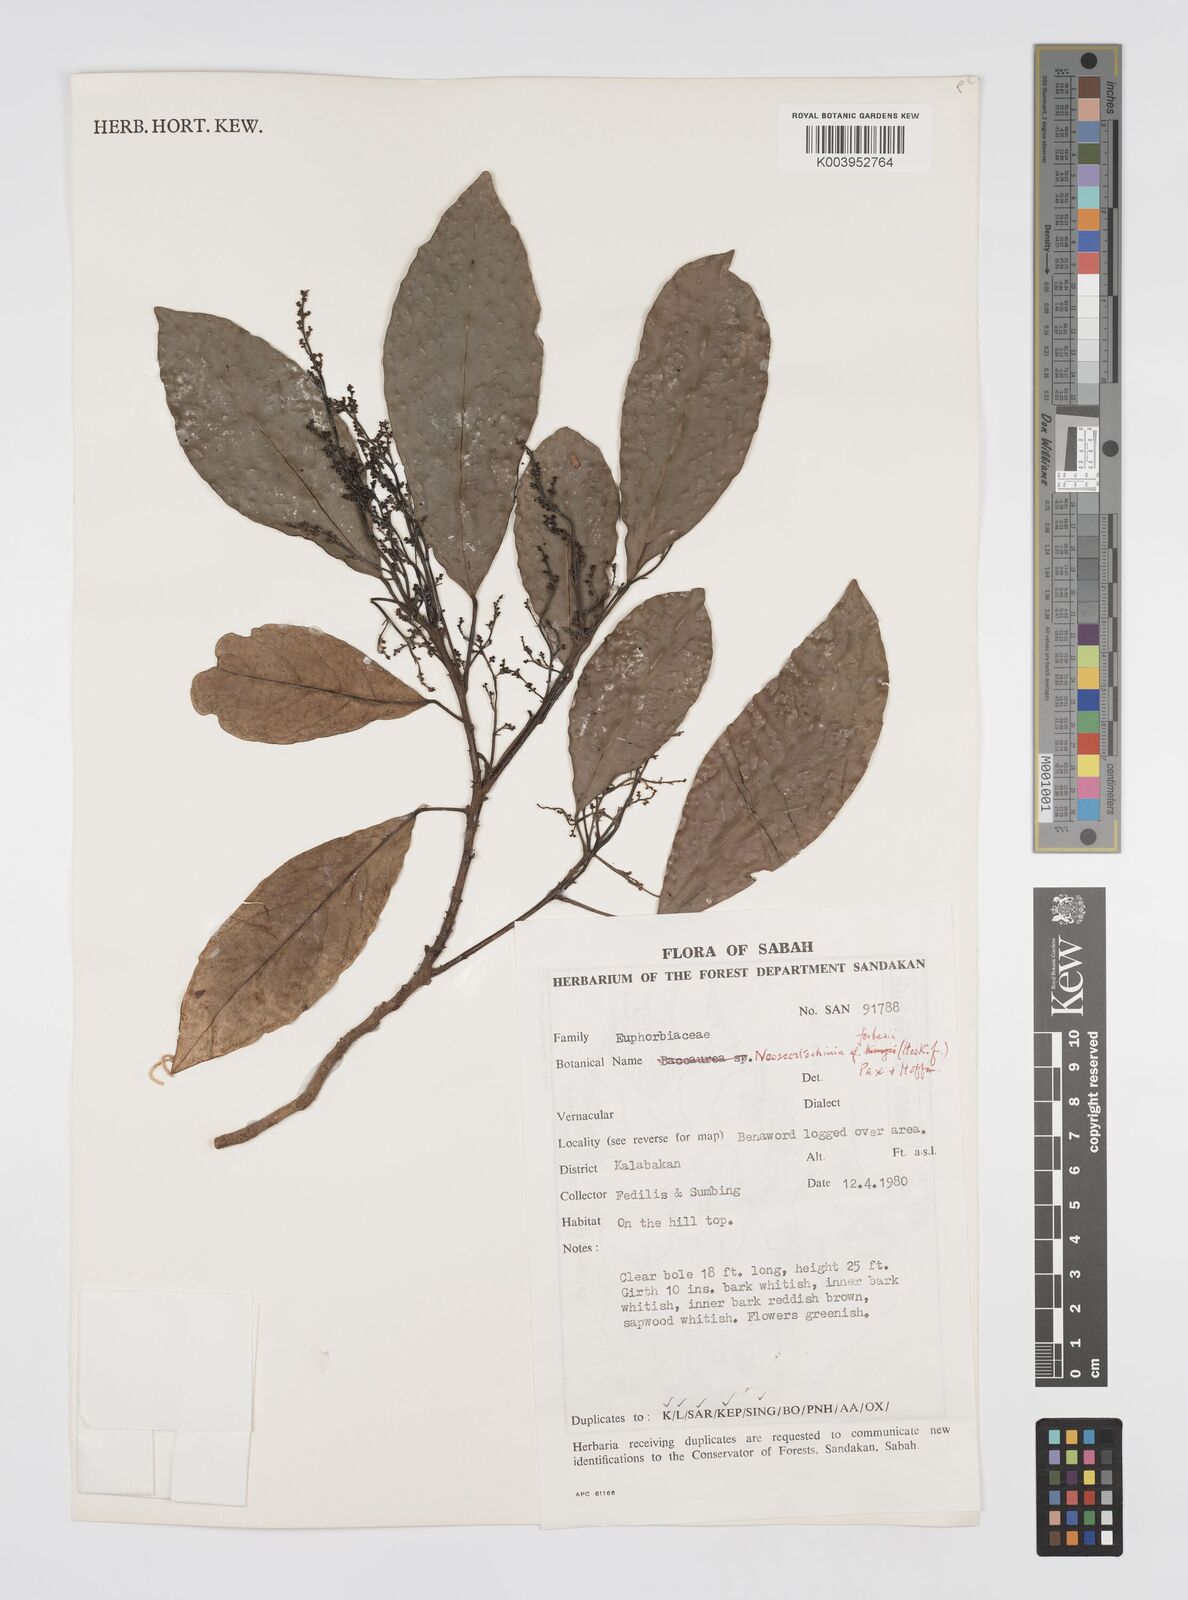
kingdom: Plantae
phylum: Tracheophyta
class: Magnoliopsida
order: Malpighiales
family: Euphorbiaceae
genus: Neoscortechinia
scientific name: Neoscortechinia forbesii
